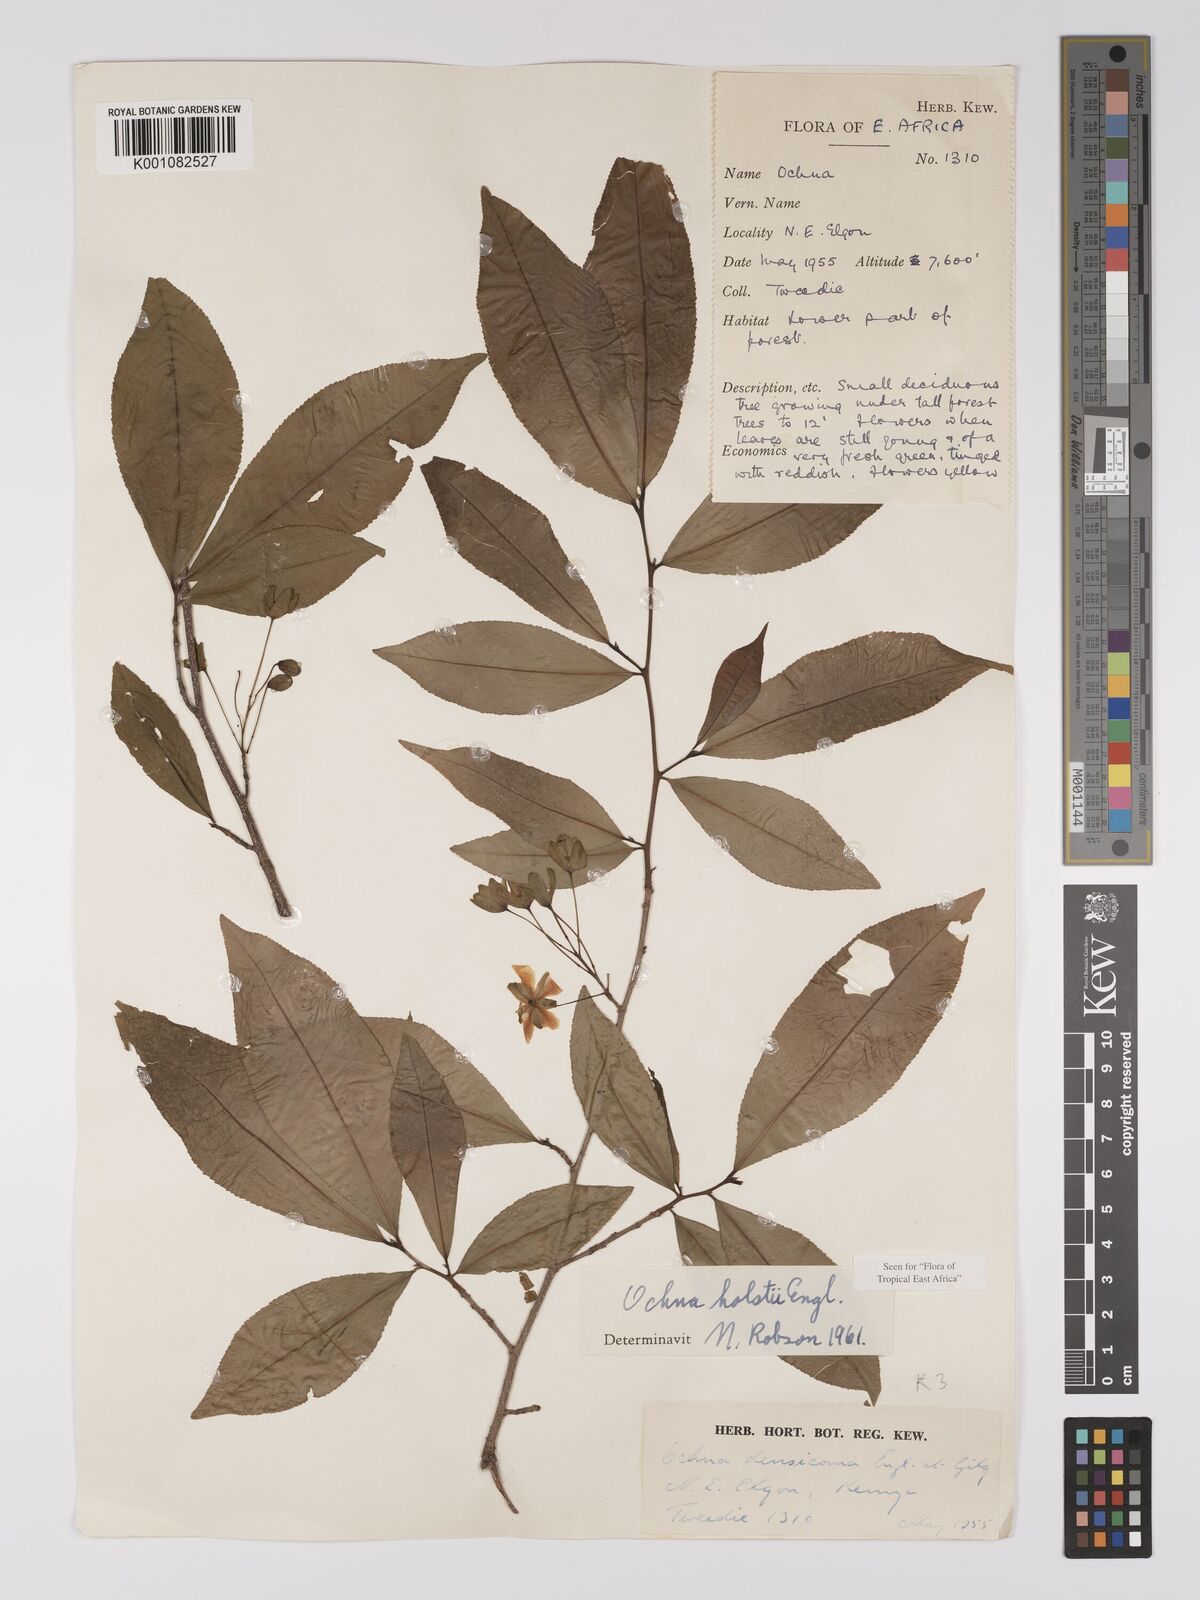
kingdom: Plantae
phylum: Tracheophyta
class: Magnoliopsida
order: Malpighiales
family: Ochnaceae
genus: Ochna
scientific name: Ochna holstii
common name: Red ironwood
